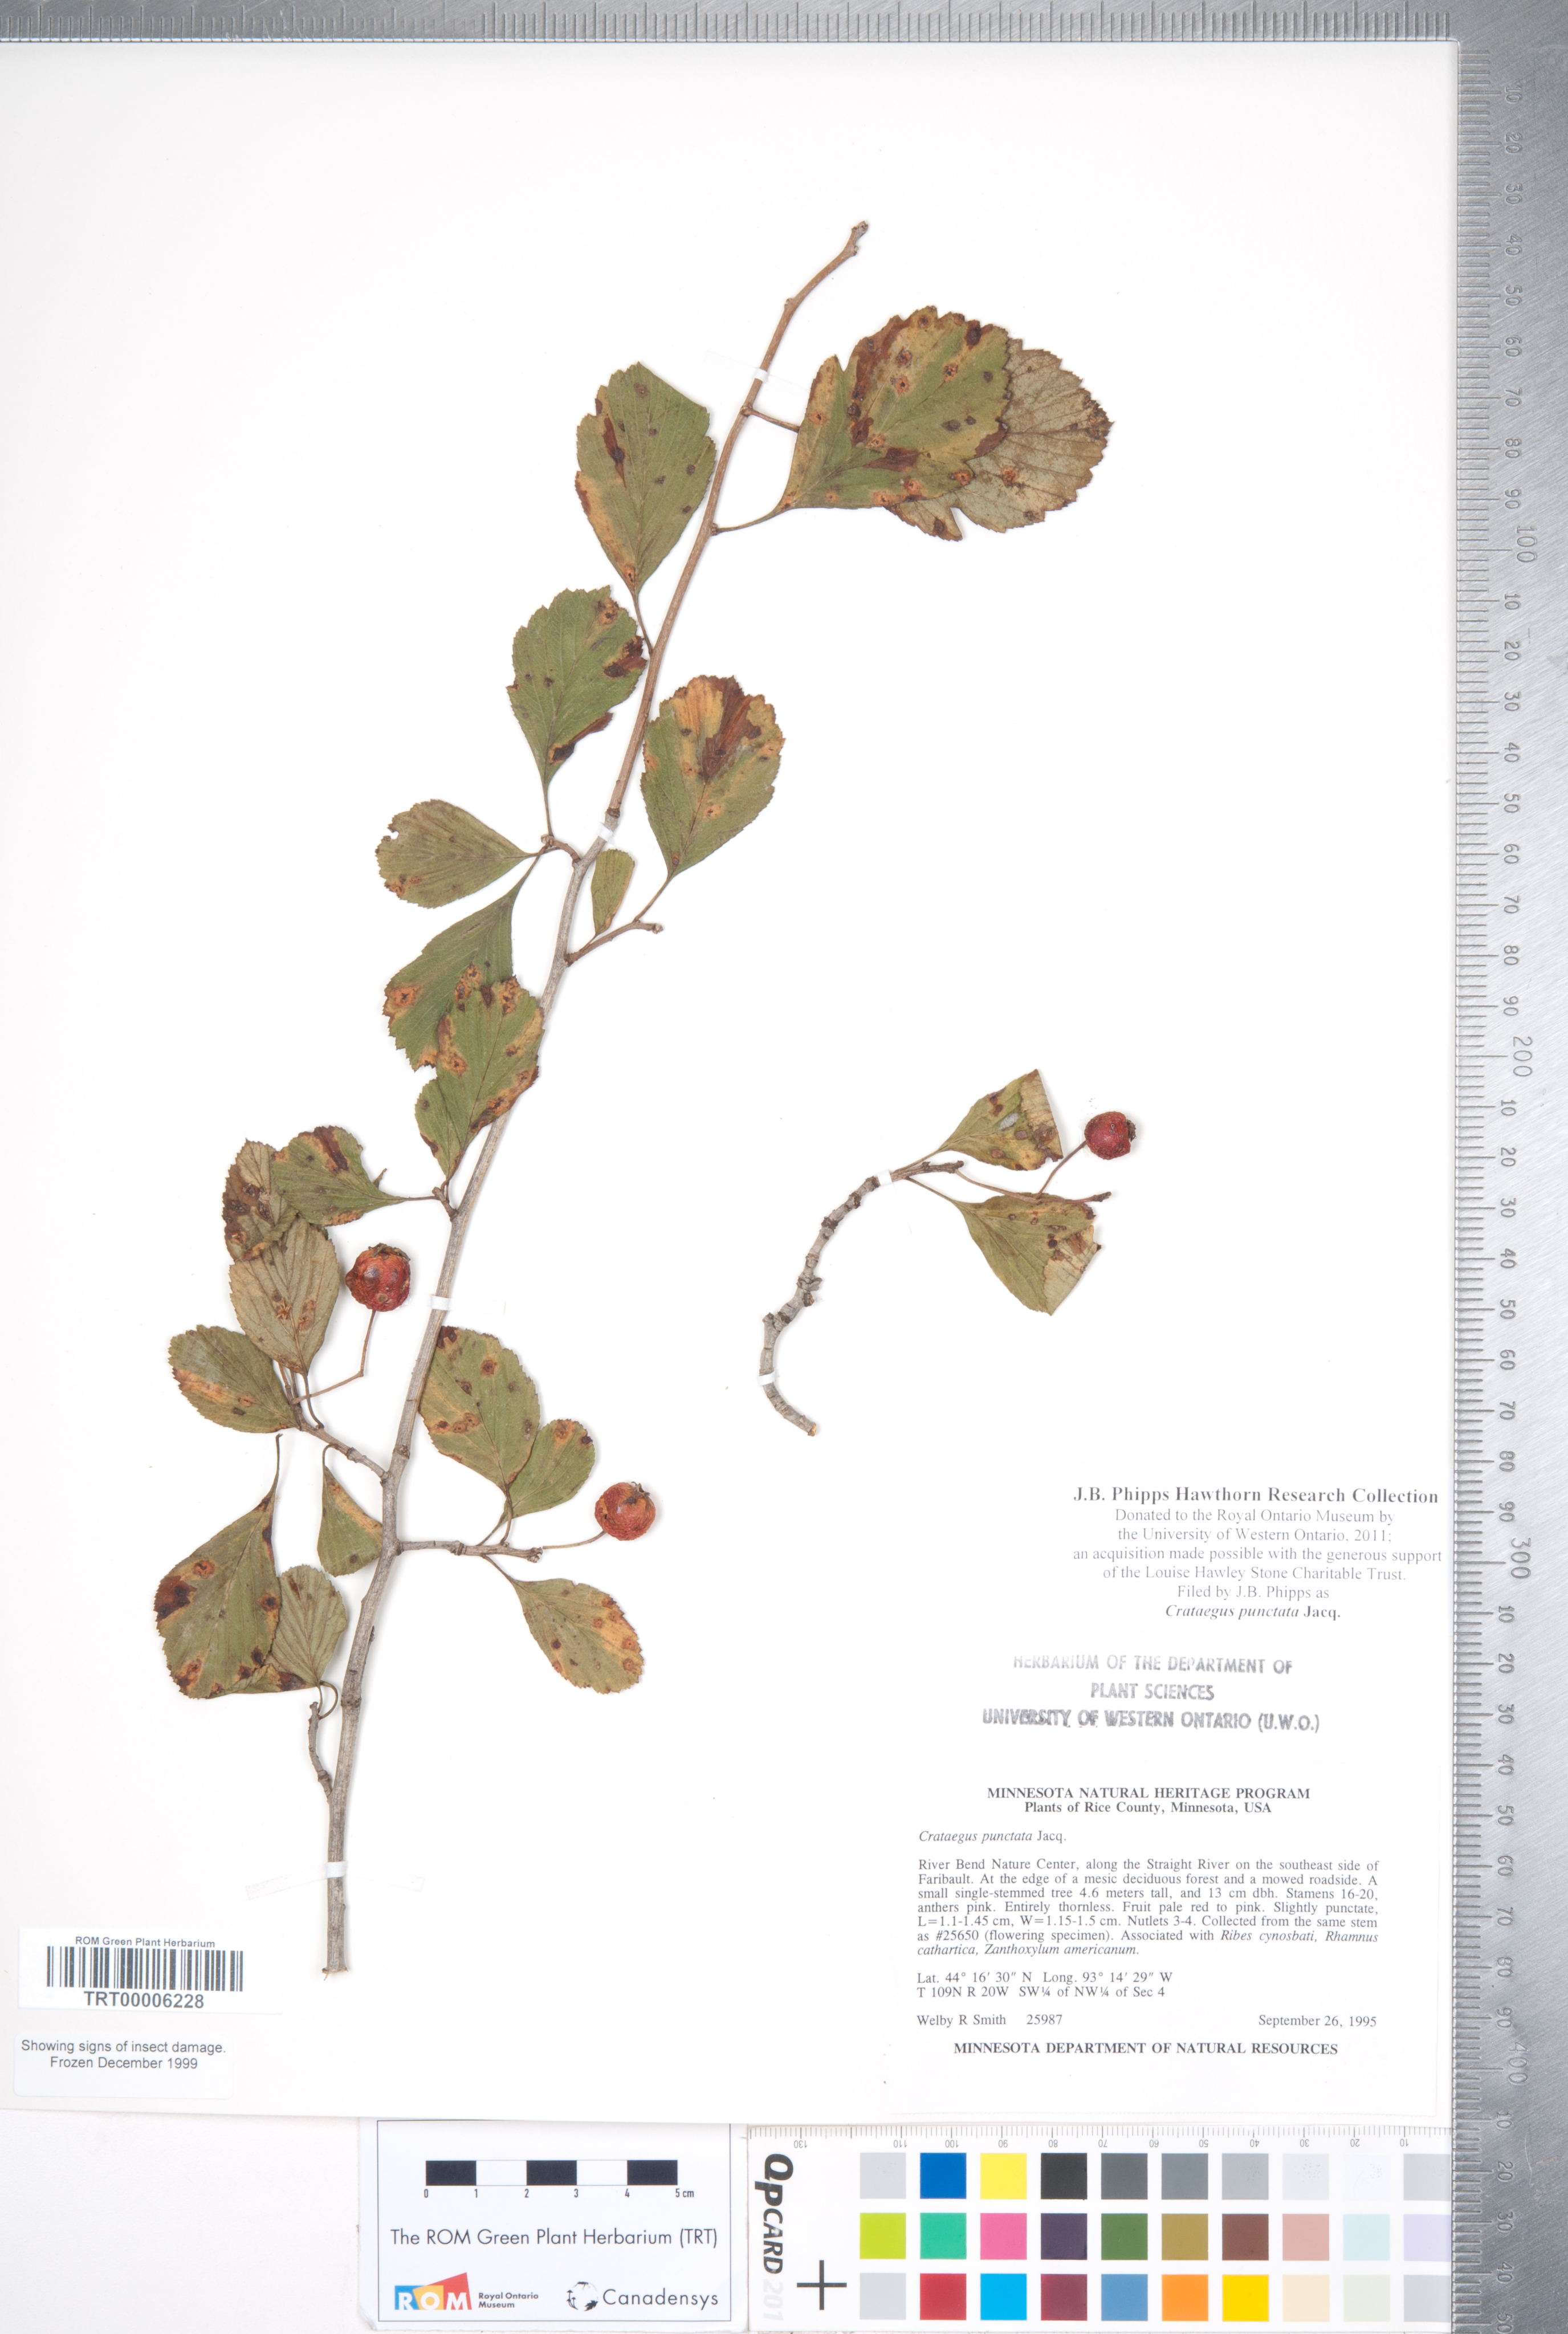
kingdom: Plantae
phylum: Tracheophyta
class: Magnoliopsida
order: Rosales
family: Rosaceae
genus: Crataegus
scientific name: Crataegus punctata
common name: Dotted hawthorn
